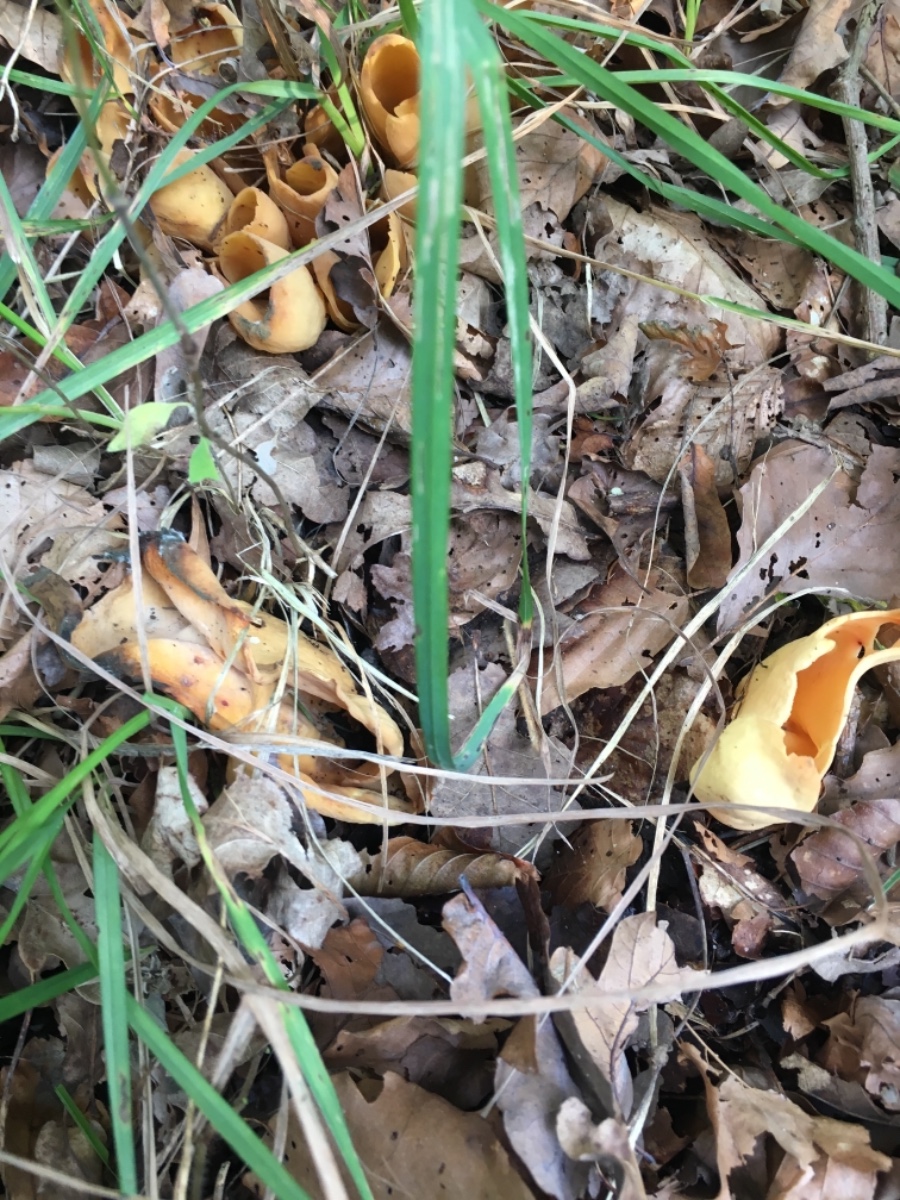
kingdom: Fungi
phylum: Ascomycota
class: Pezizomycetes
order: Pezizales
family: Otideaceae
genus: Otidea
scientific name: Otidea onotica
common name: æsel-ørebæger
